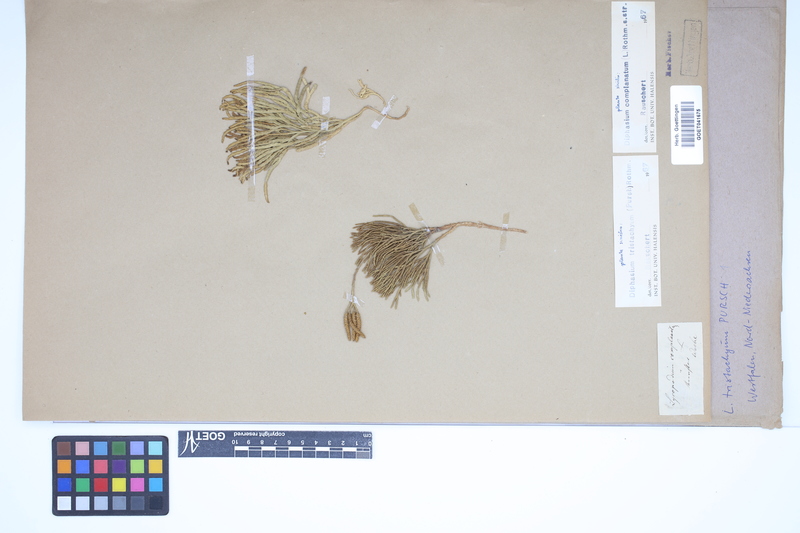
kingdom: Plantae
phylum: Tracheophyta
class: Lycopodiopsida
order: Lycopodiales
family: Lycopodiaceae
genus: Diphasiastrum
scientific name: Diphasiastrum complanatum
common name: Northern running-pine
